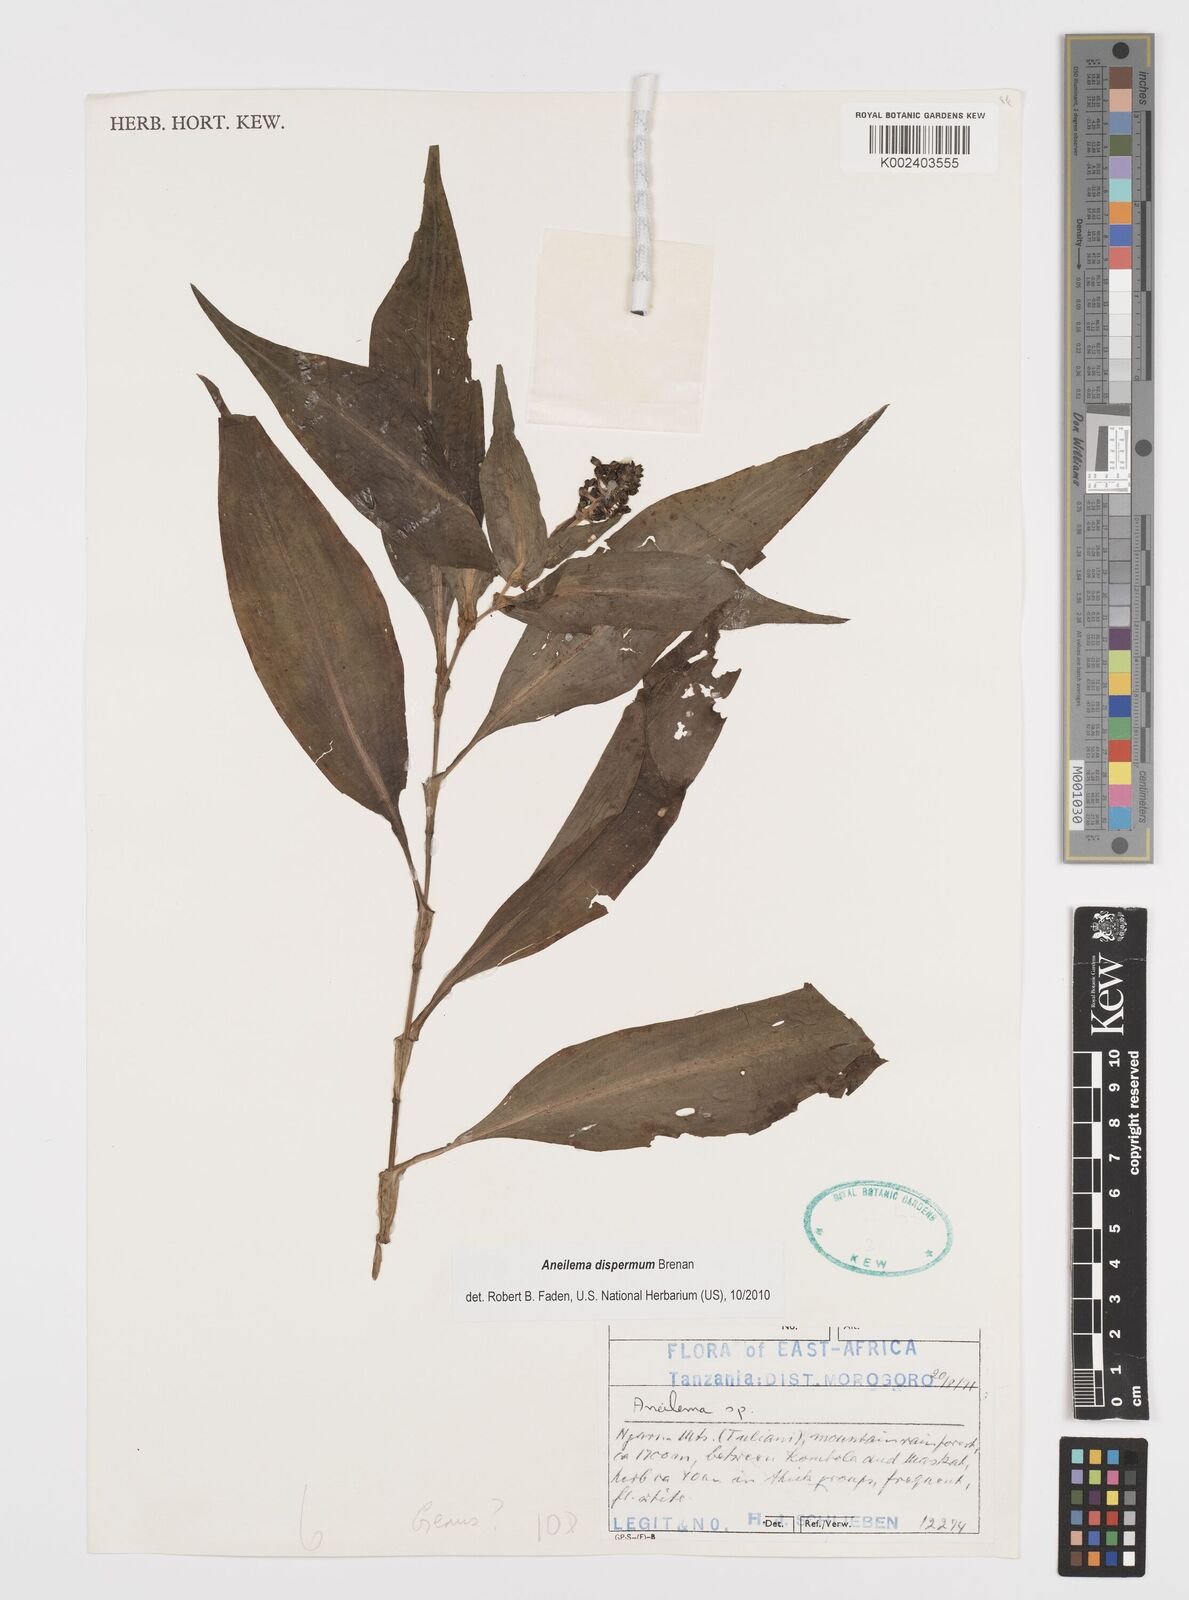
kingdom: Plantae
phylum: Tracheophyta
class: Liliopsida
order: Commelinales
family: Commelinaceae
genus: Aneilema
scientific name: Aneilema dispermum
